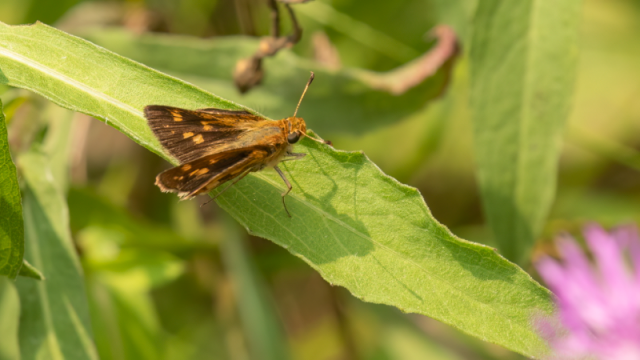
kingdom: Animalia
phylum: Arthropoda
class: Insecta
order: Lepidoptera
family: Hesperiidae
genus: Polites
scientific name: Polites coras
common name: Peck's Skipper
